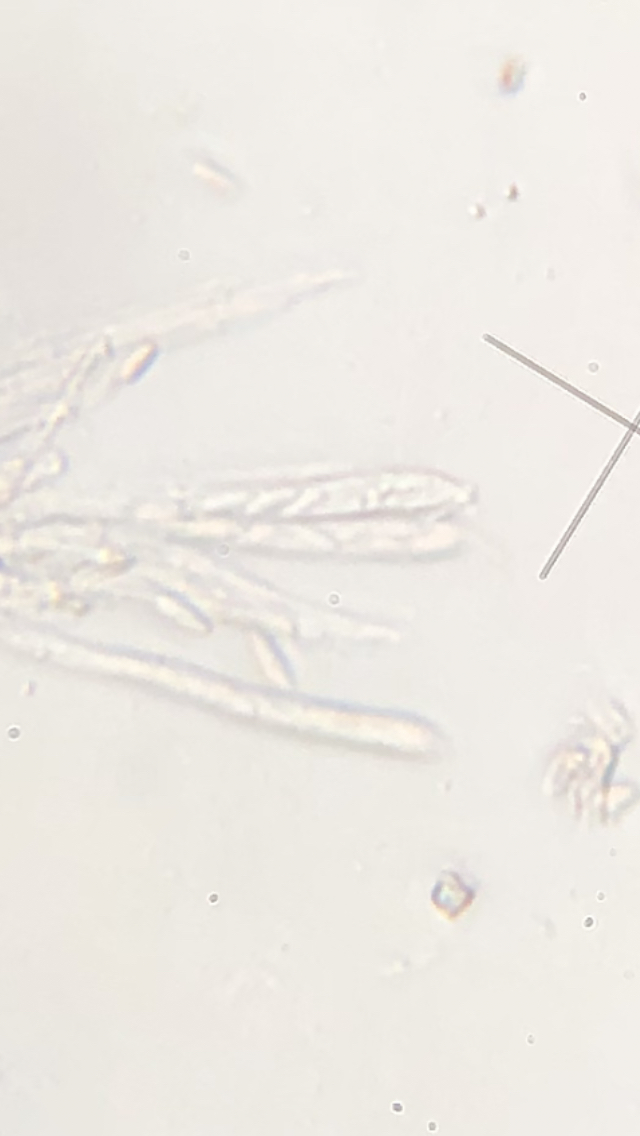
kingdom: Fungi
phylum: Ascomycota
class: Leotiomycetes
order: Helotiales
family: Lachnaceae
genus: Dasyscyphella
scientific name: Dasyscyphella
